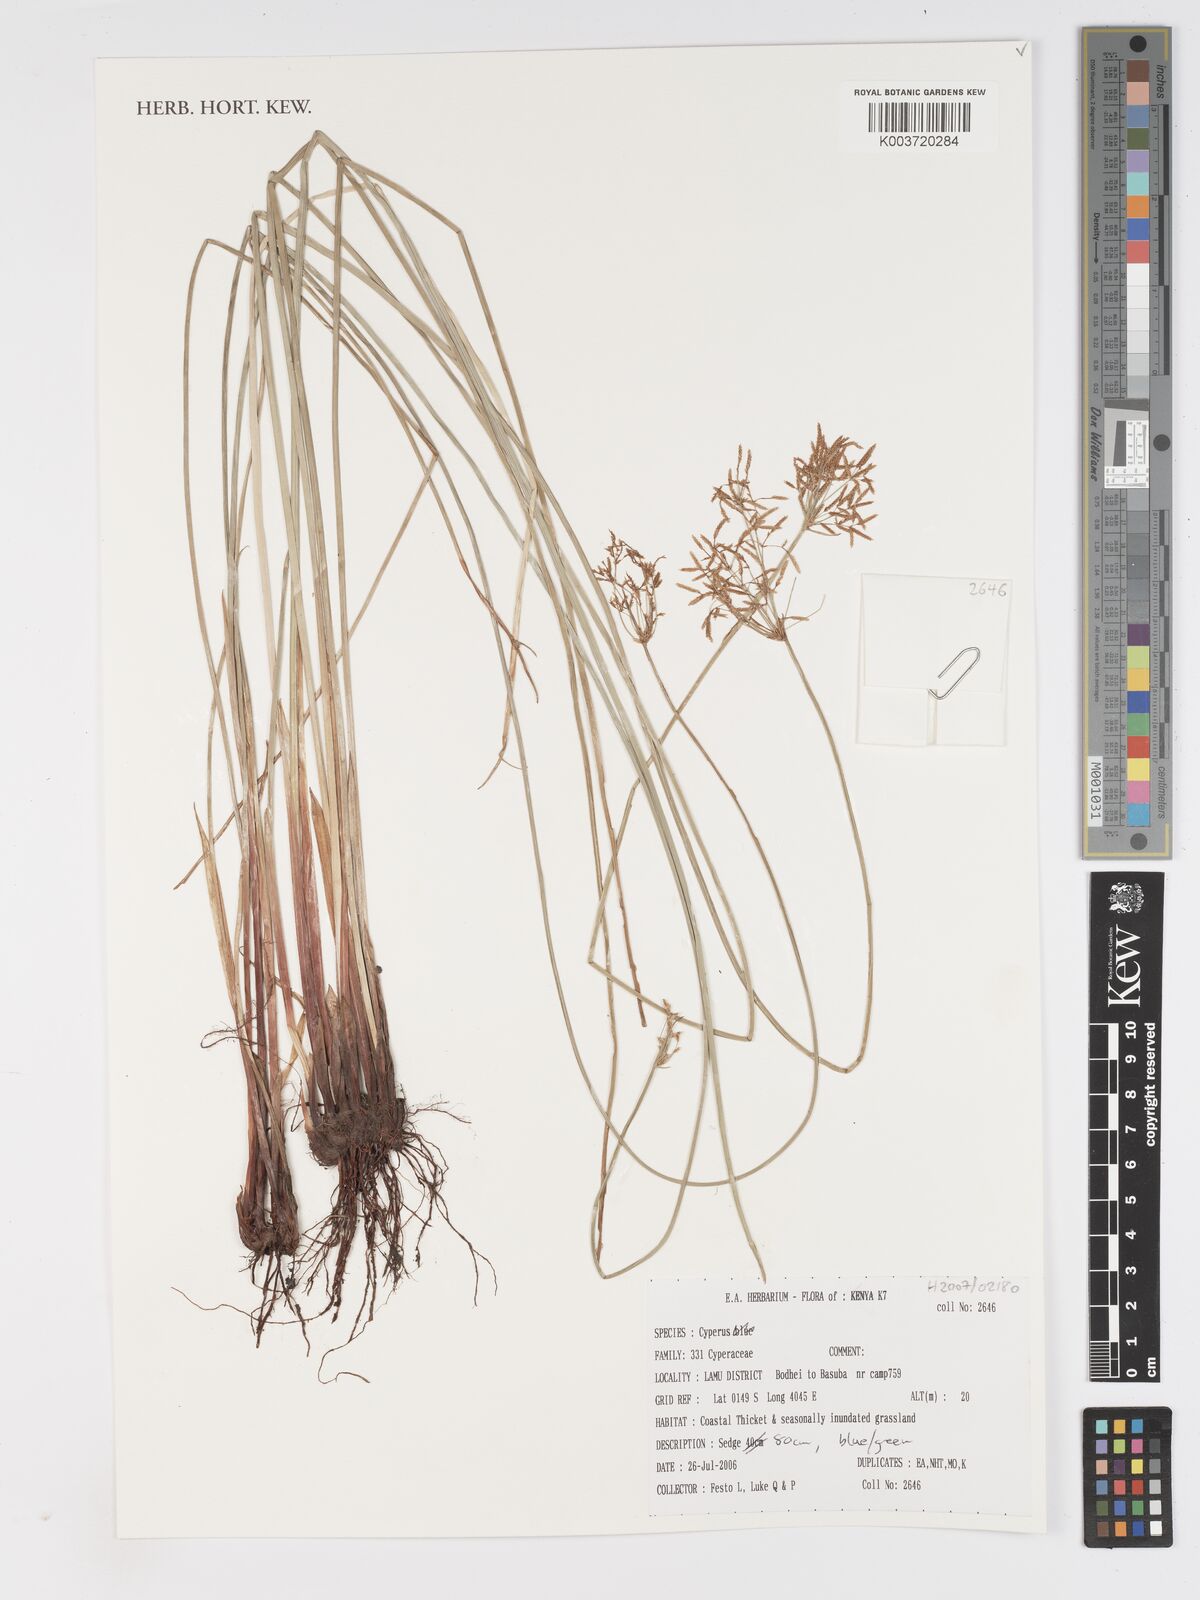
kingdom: Plantae
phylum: Tracheophyta
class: Liliopsida
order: Poales
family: Cyperaceae
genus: Cyperus
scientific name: Cyperus
